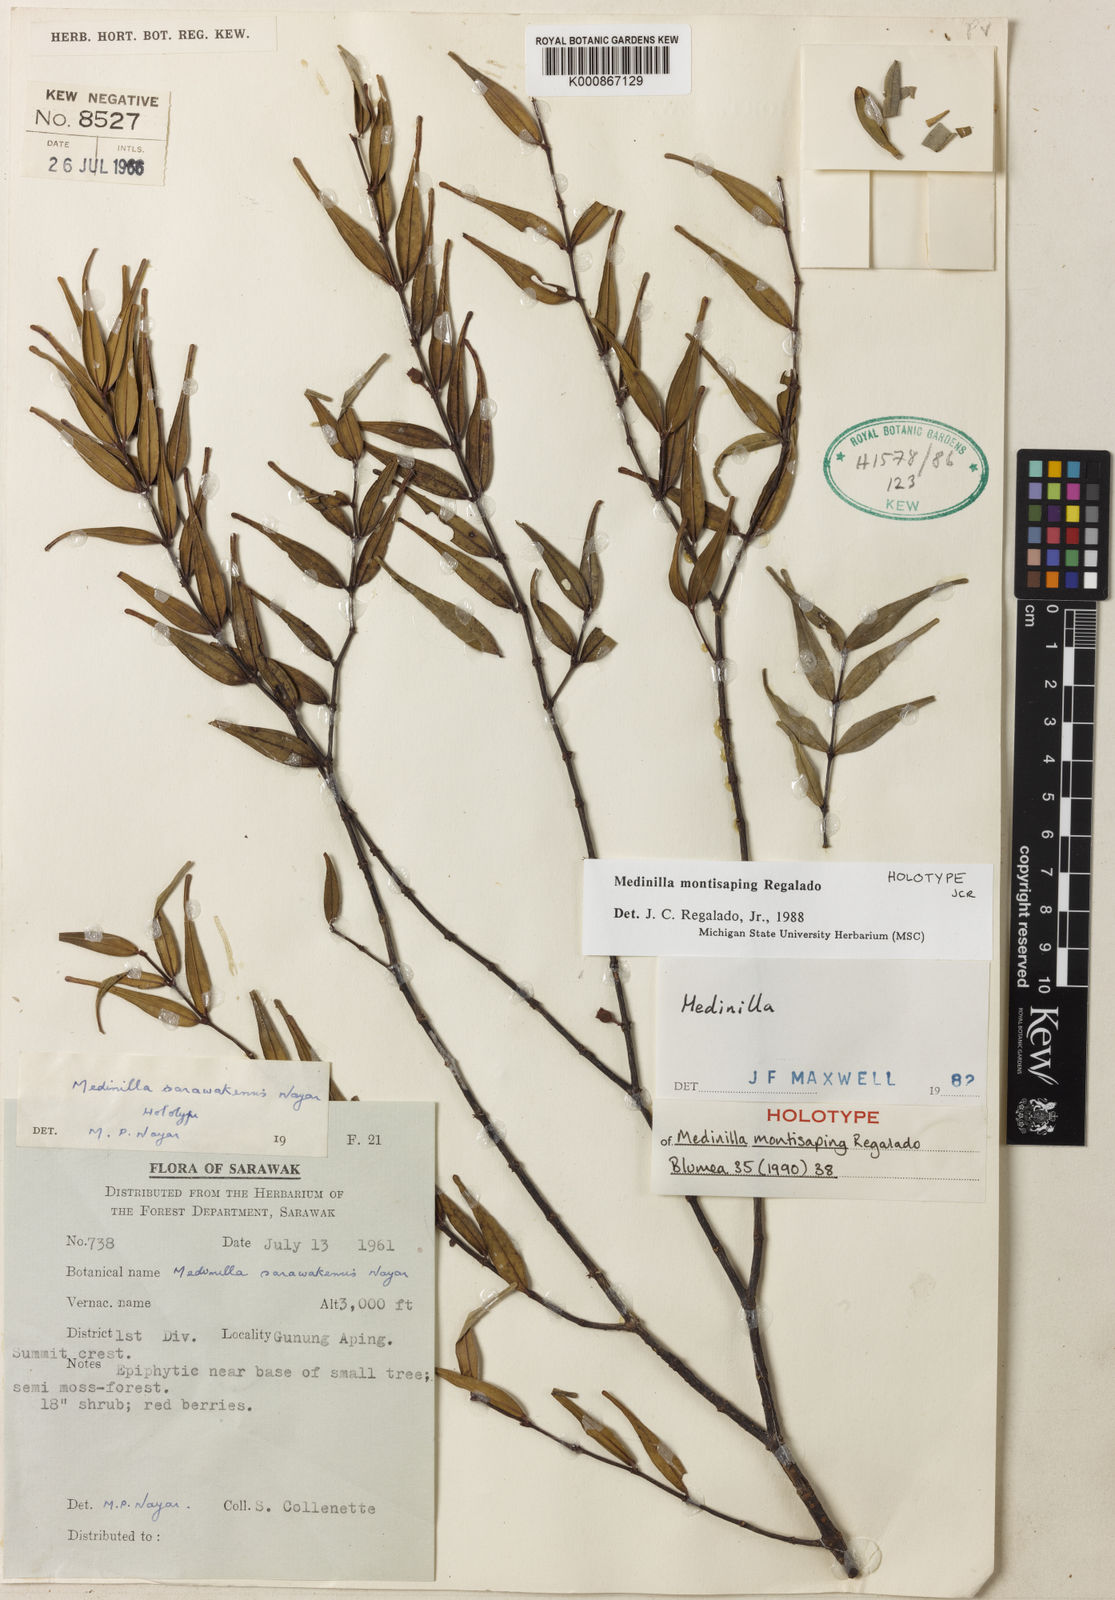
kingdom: Plantae
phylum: Tracheophyta
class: Magnoliopsida
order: Myrtales
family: Melastomataceae
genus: Medinilla
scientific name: Medinilla montisaping
